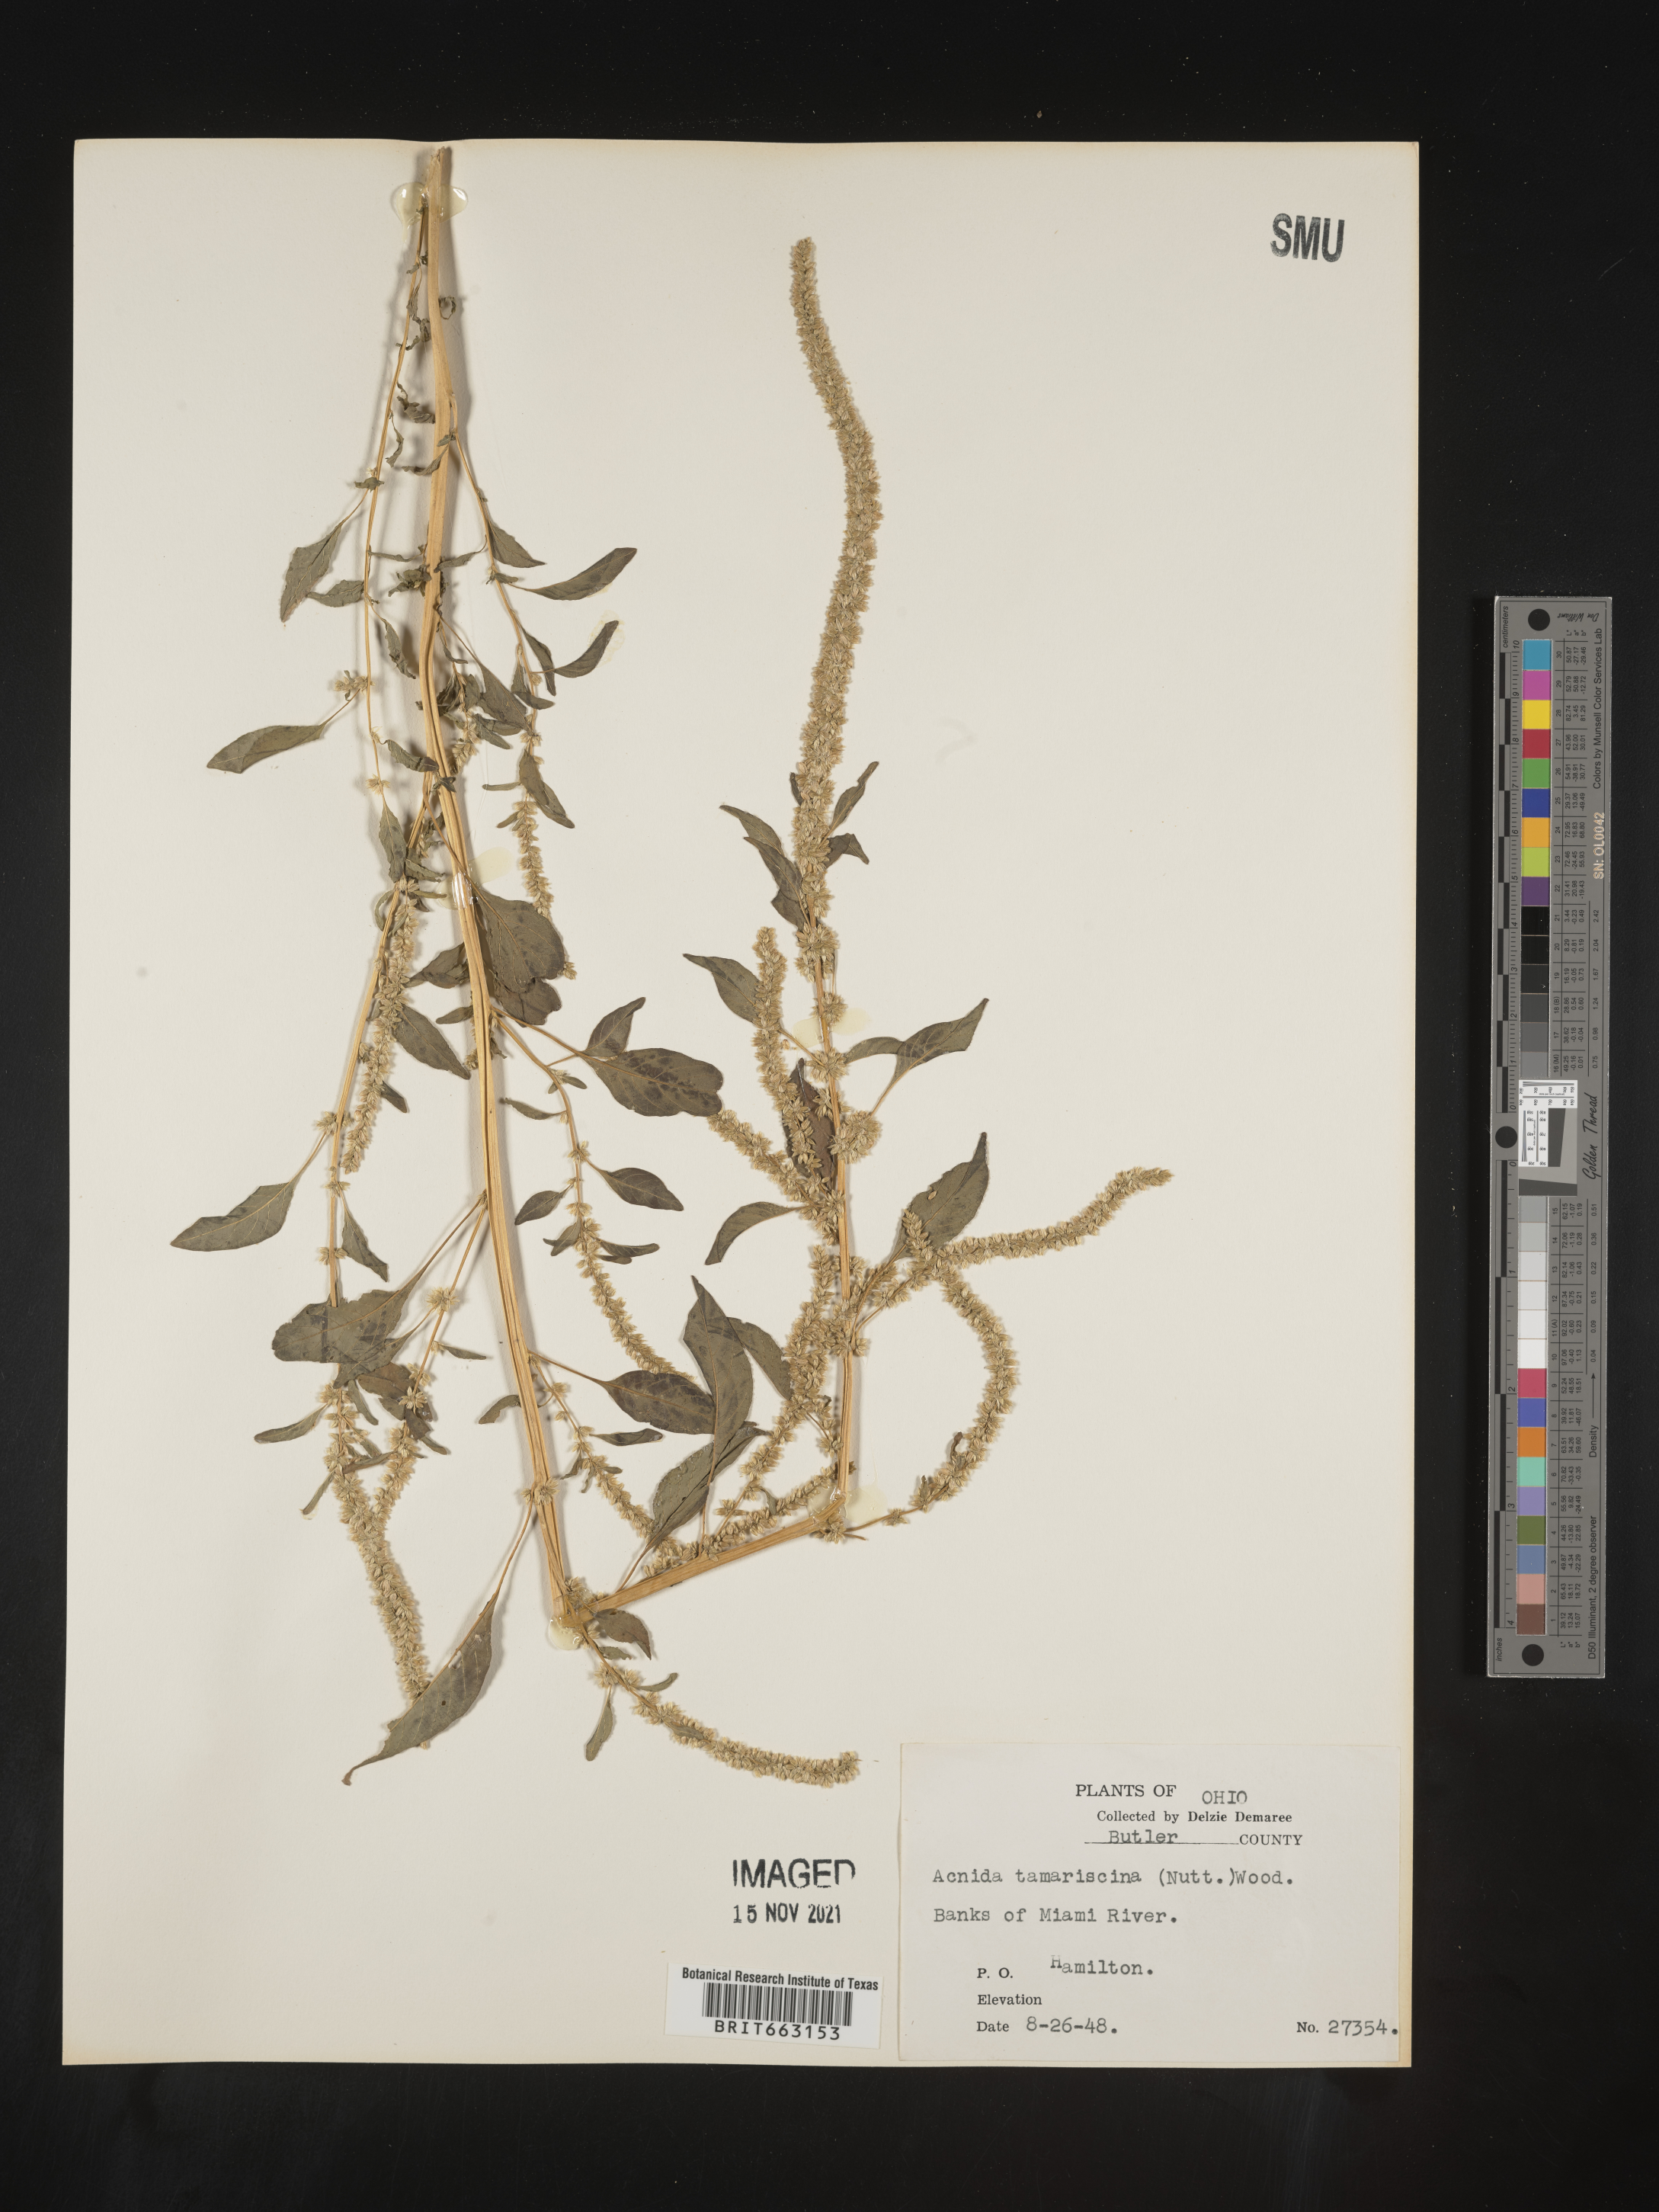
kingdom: Plantae
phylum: Tracheophyta
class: Magnoliopsida
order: Caryophyllales
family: Amaranthaceae
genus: Amaranthus
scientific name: Amaranthus tamariscinus
